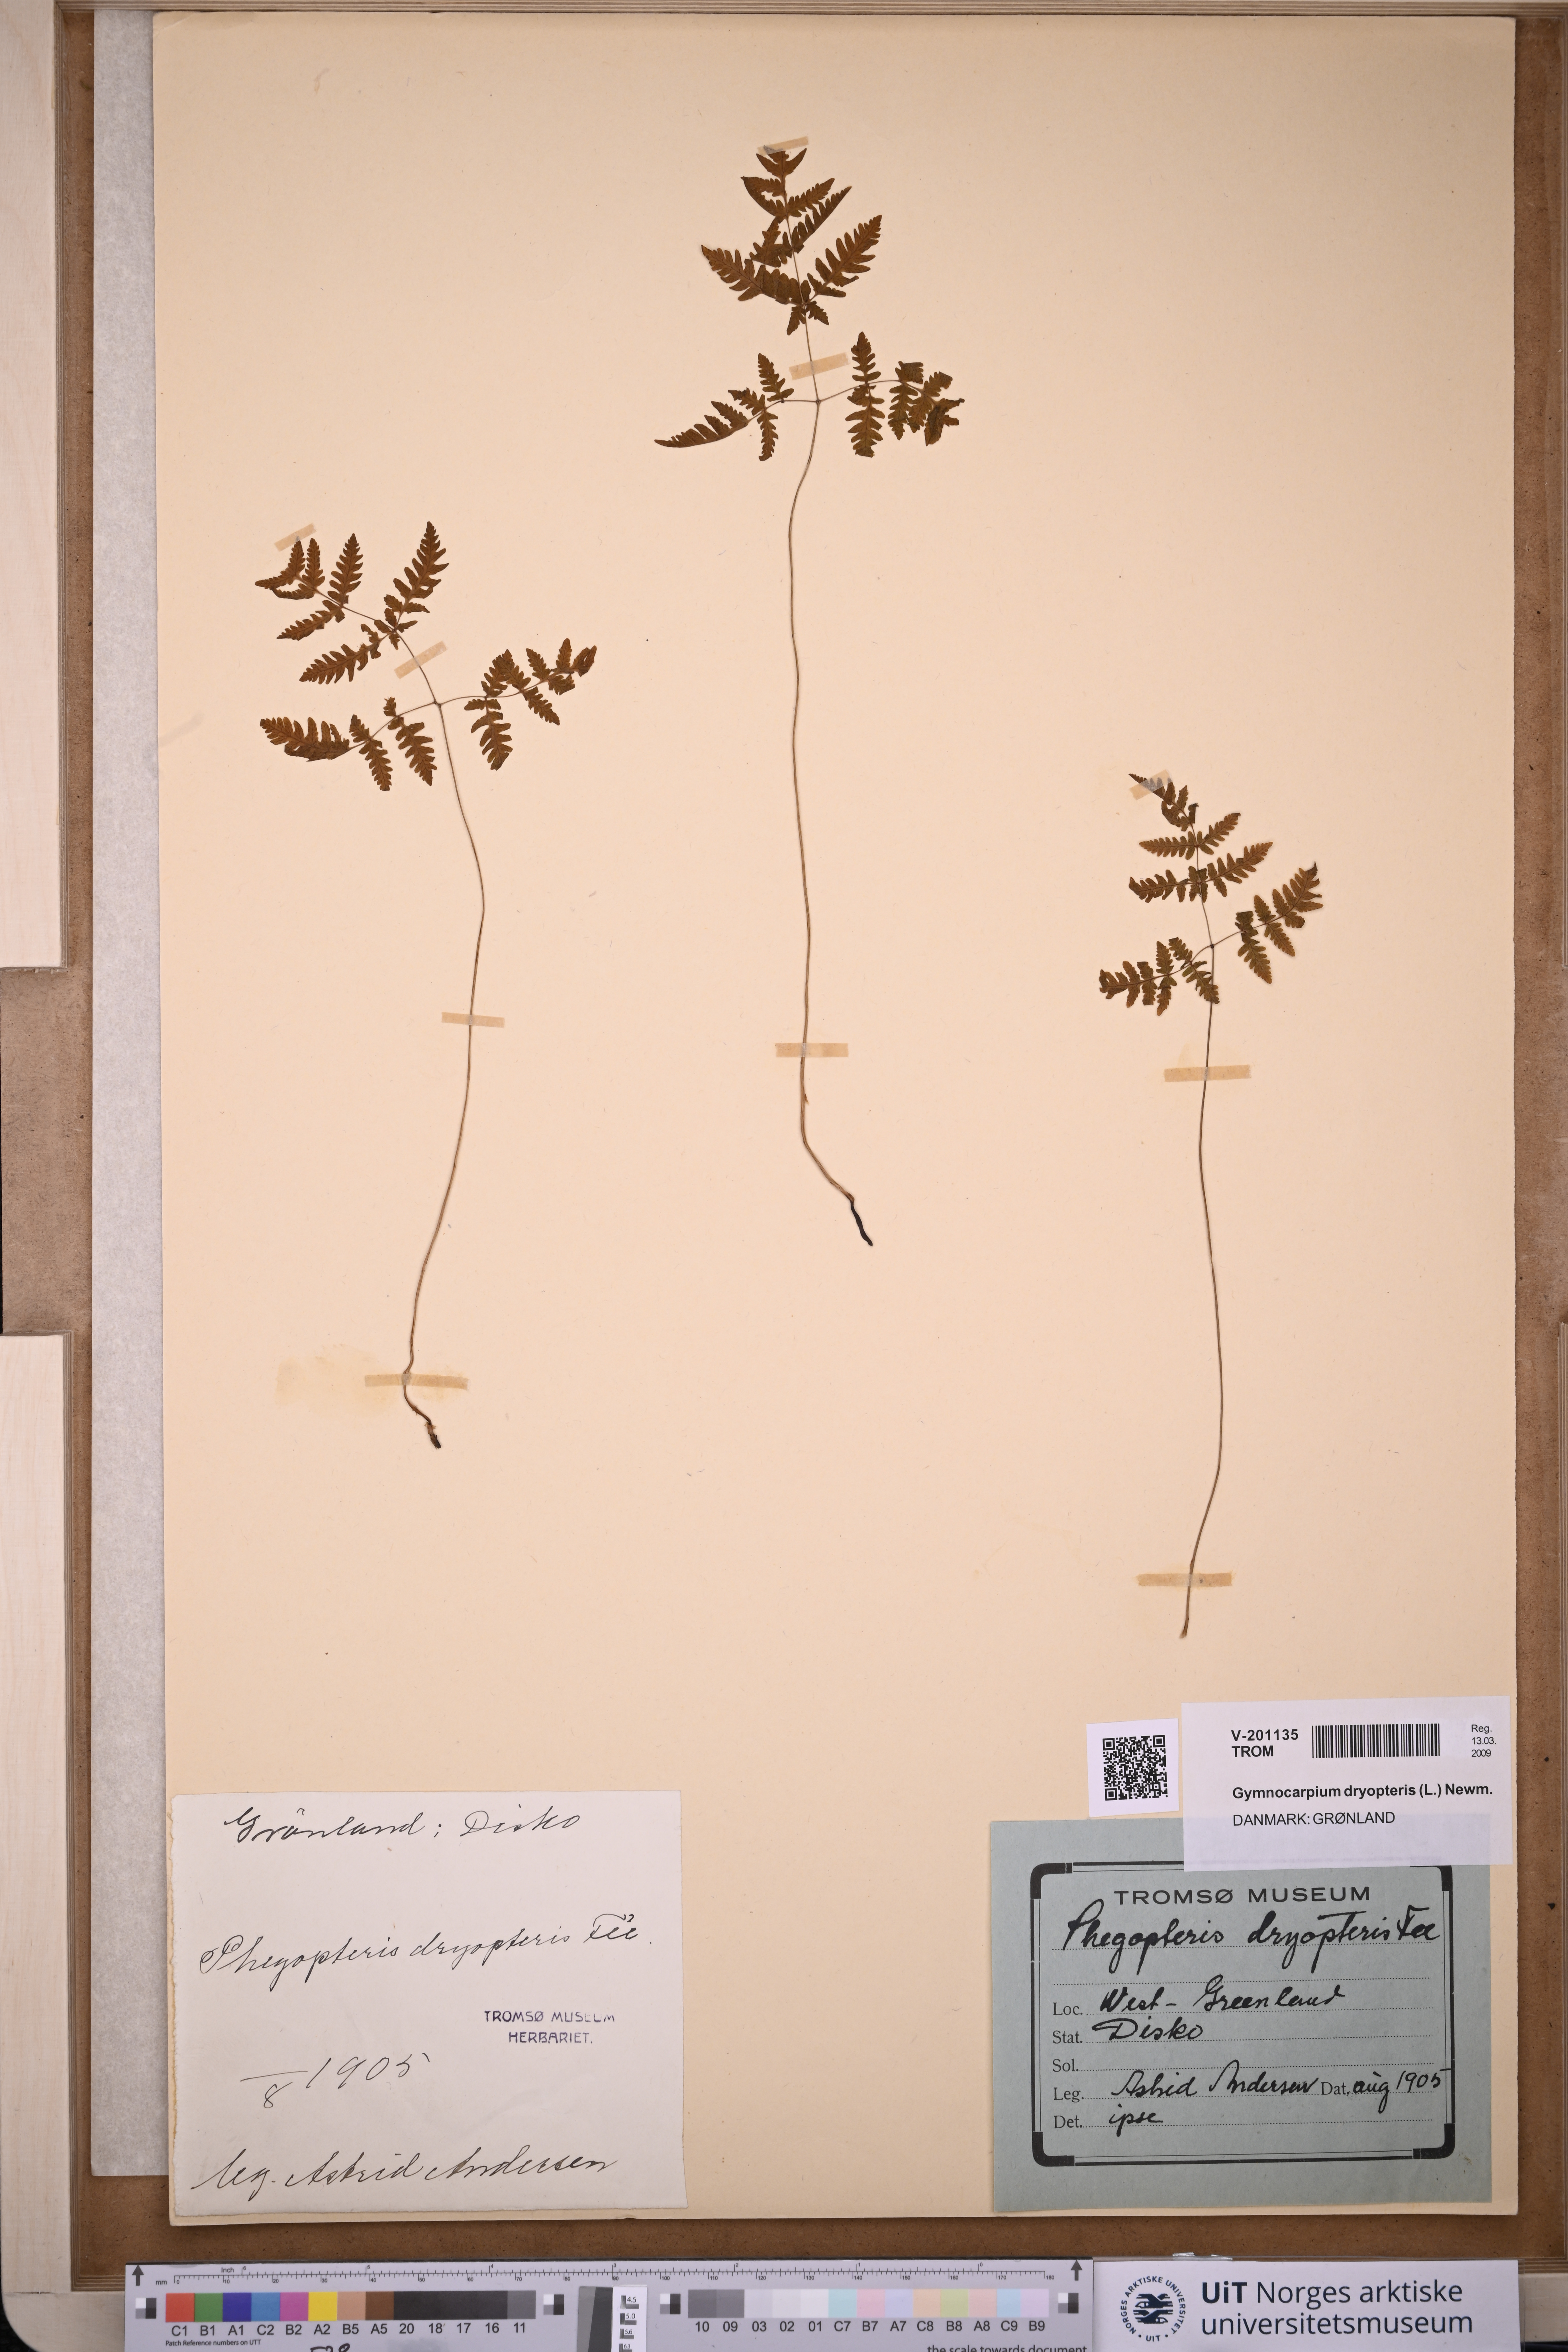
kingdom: Plantae
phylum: Tracheophyta
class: Polypodiopsida
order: Polypodiales
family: Cystopteridaceae
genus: Gymnocarpium
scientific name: Gymnocarpium dryopteris
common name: Oak fern
